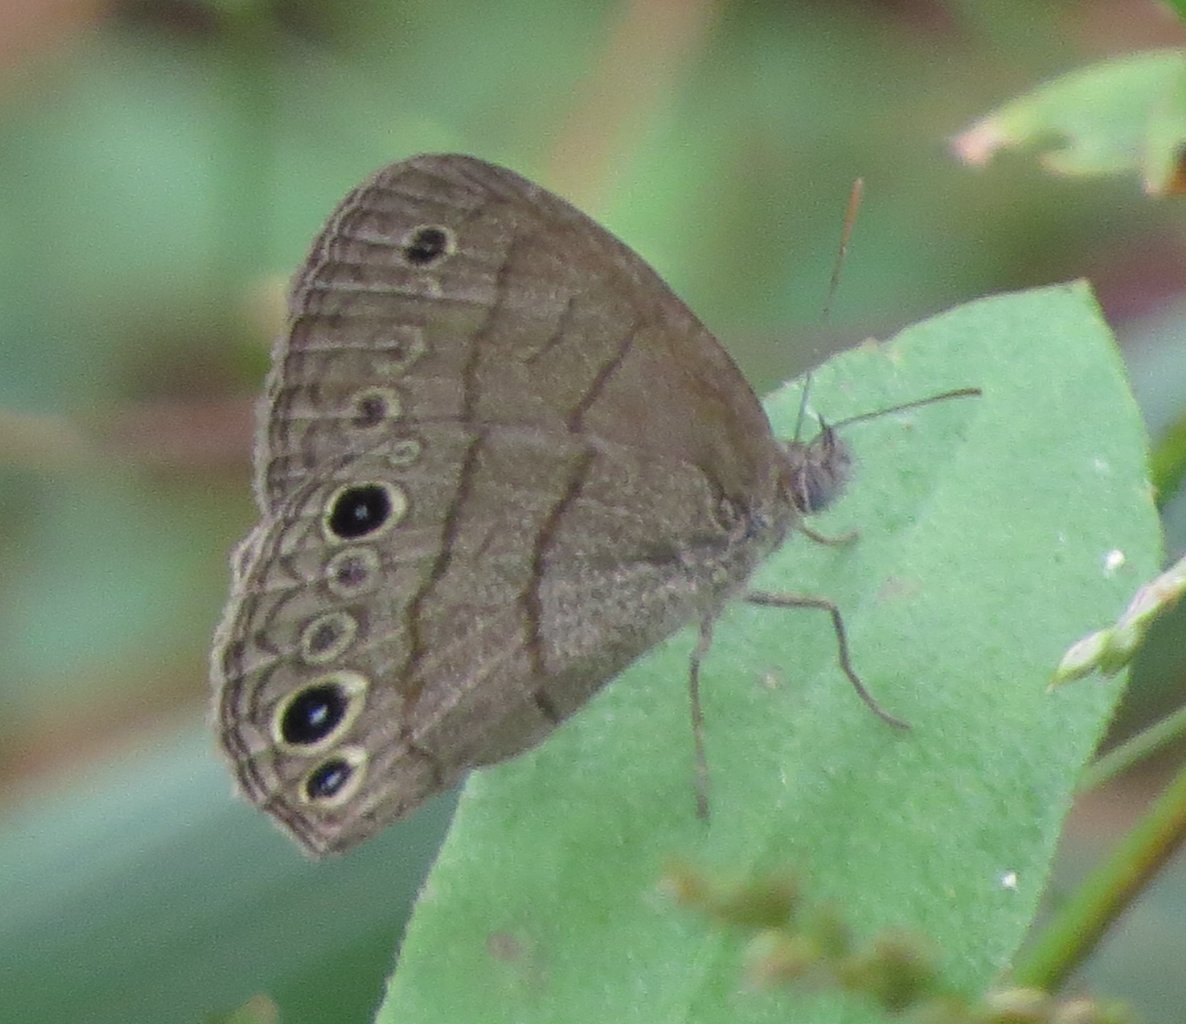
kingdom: Animalia
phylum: Arthropoda
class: Insecta
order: Lepidoptera
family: Nymphalidae
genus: Hermeuptychia
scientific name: Hermeuptychia intricata
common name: Intricate Satyr
